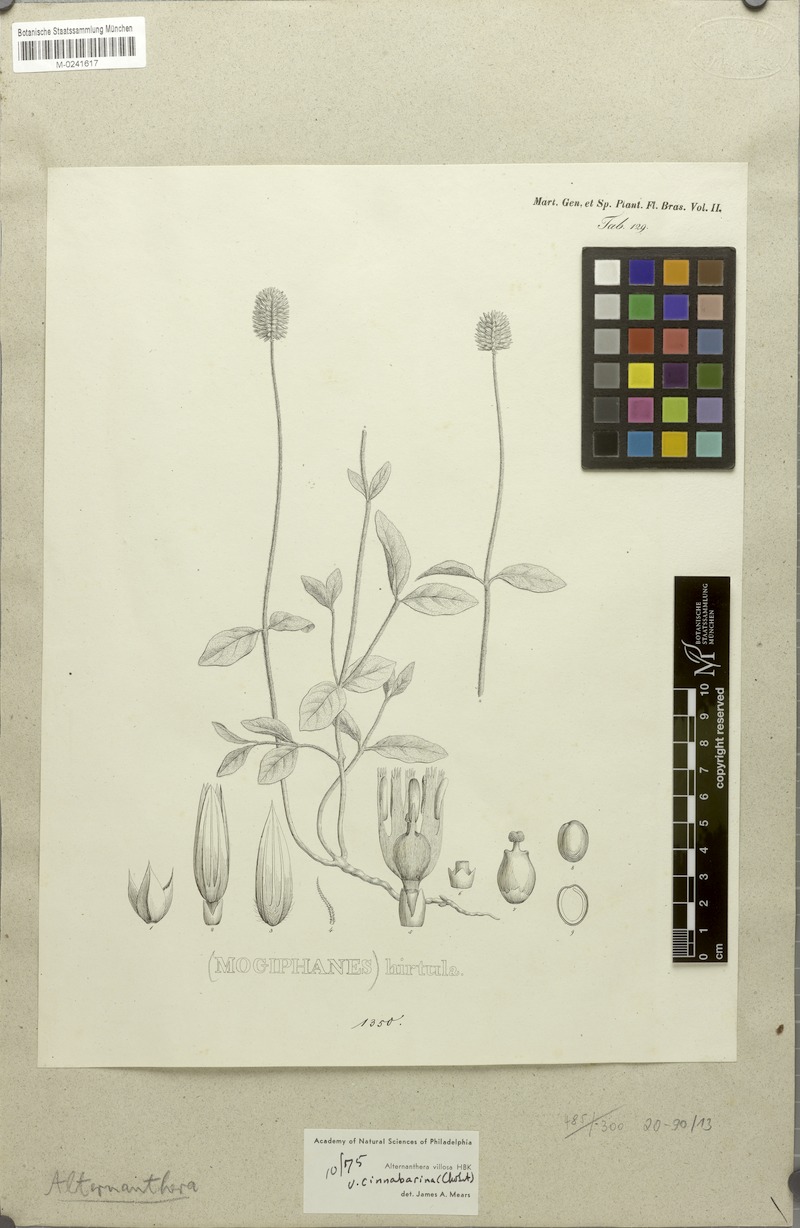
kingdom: Plantae
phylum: Tracheophyta
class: Magnoliopsida
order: Caryophyllales
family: Amaranthaceae
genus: Alternanthera
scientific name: Alternanthera hirtula
